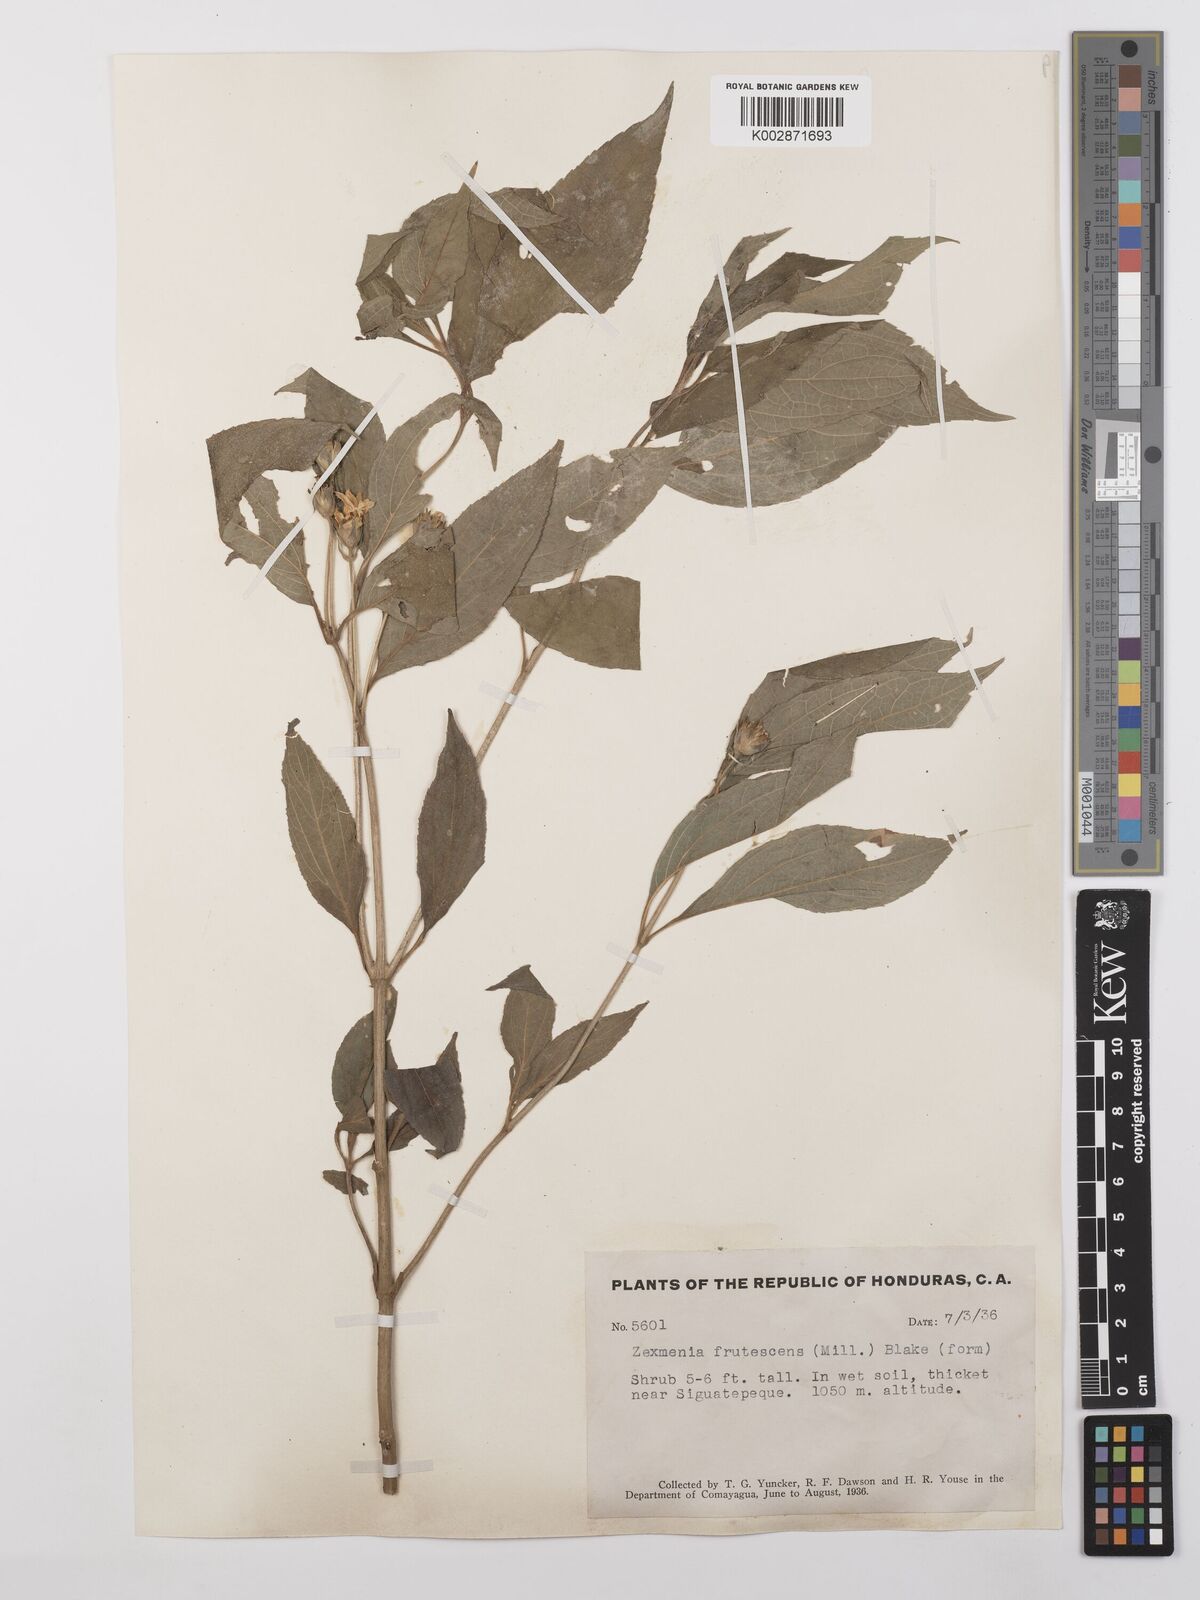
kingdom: Plantae
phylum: Tracheophyta
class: Magnoliopsida
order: Asterales
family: Asteraceae
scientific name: Asteraceae
